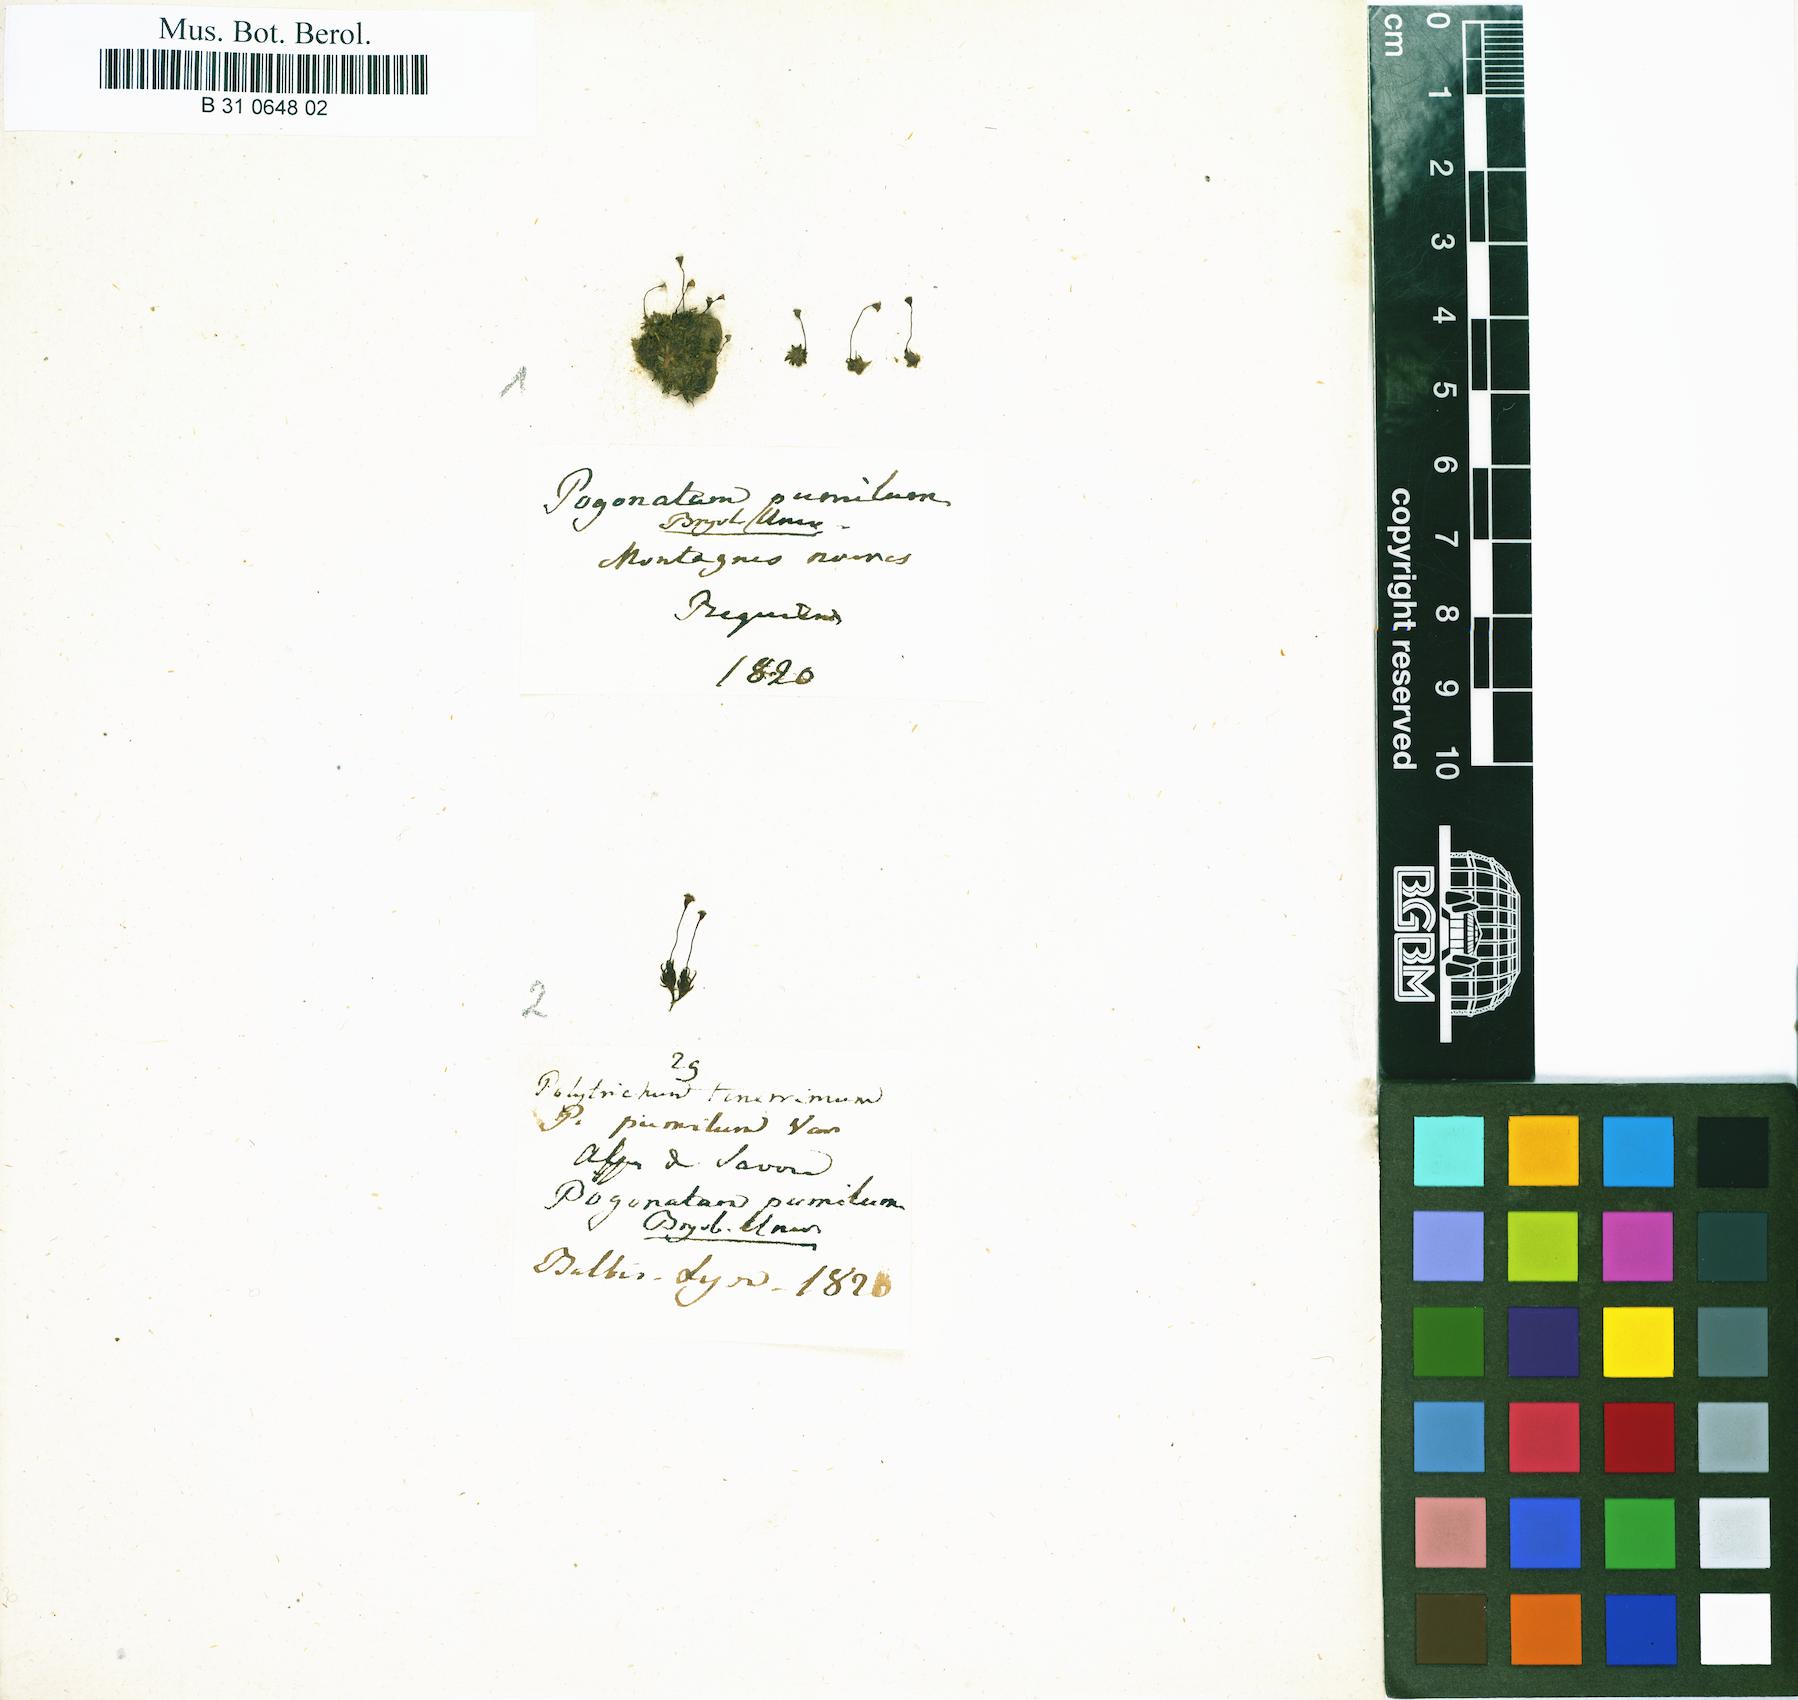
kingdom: Plantae
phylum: Bryophyta
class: Polytrichopsida
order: Polytrichales
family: Polytrichaceae
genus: Pogonatum
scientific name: Pogonatum aloides
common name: Aloe haircap
